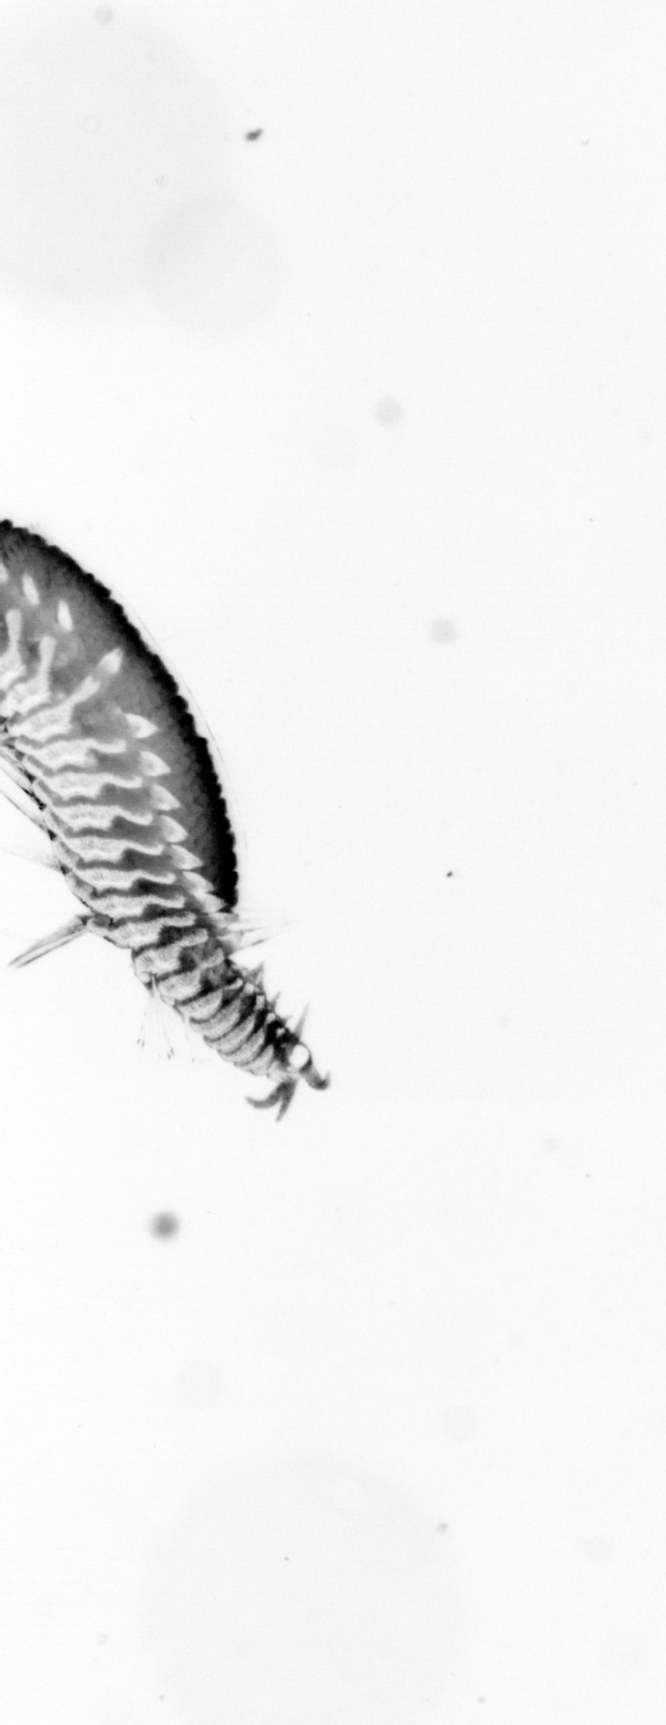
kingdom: Animalia
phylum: Arthropoda
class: Copepoda
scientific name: Copepoda
